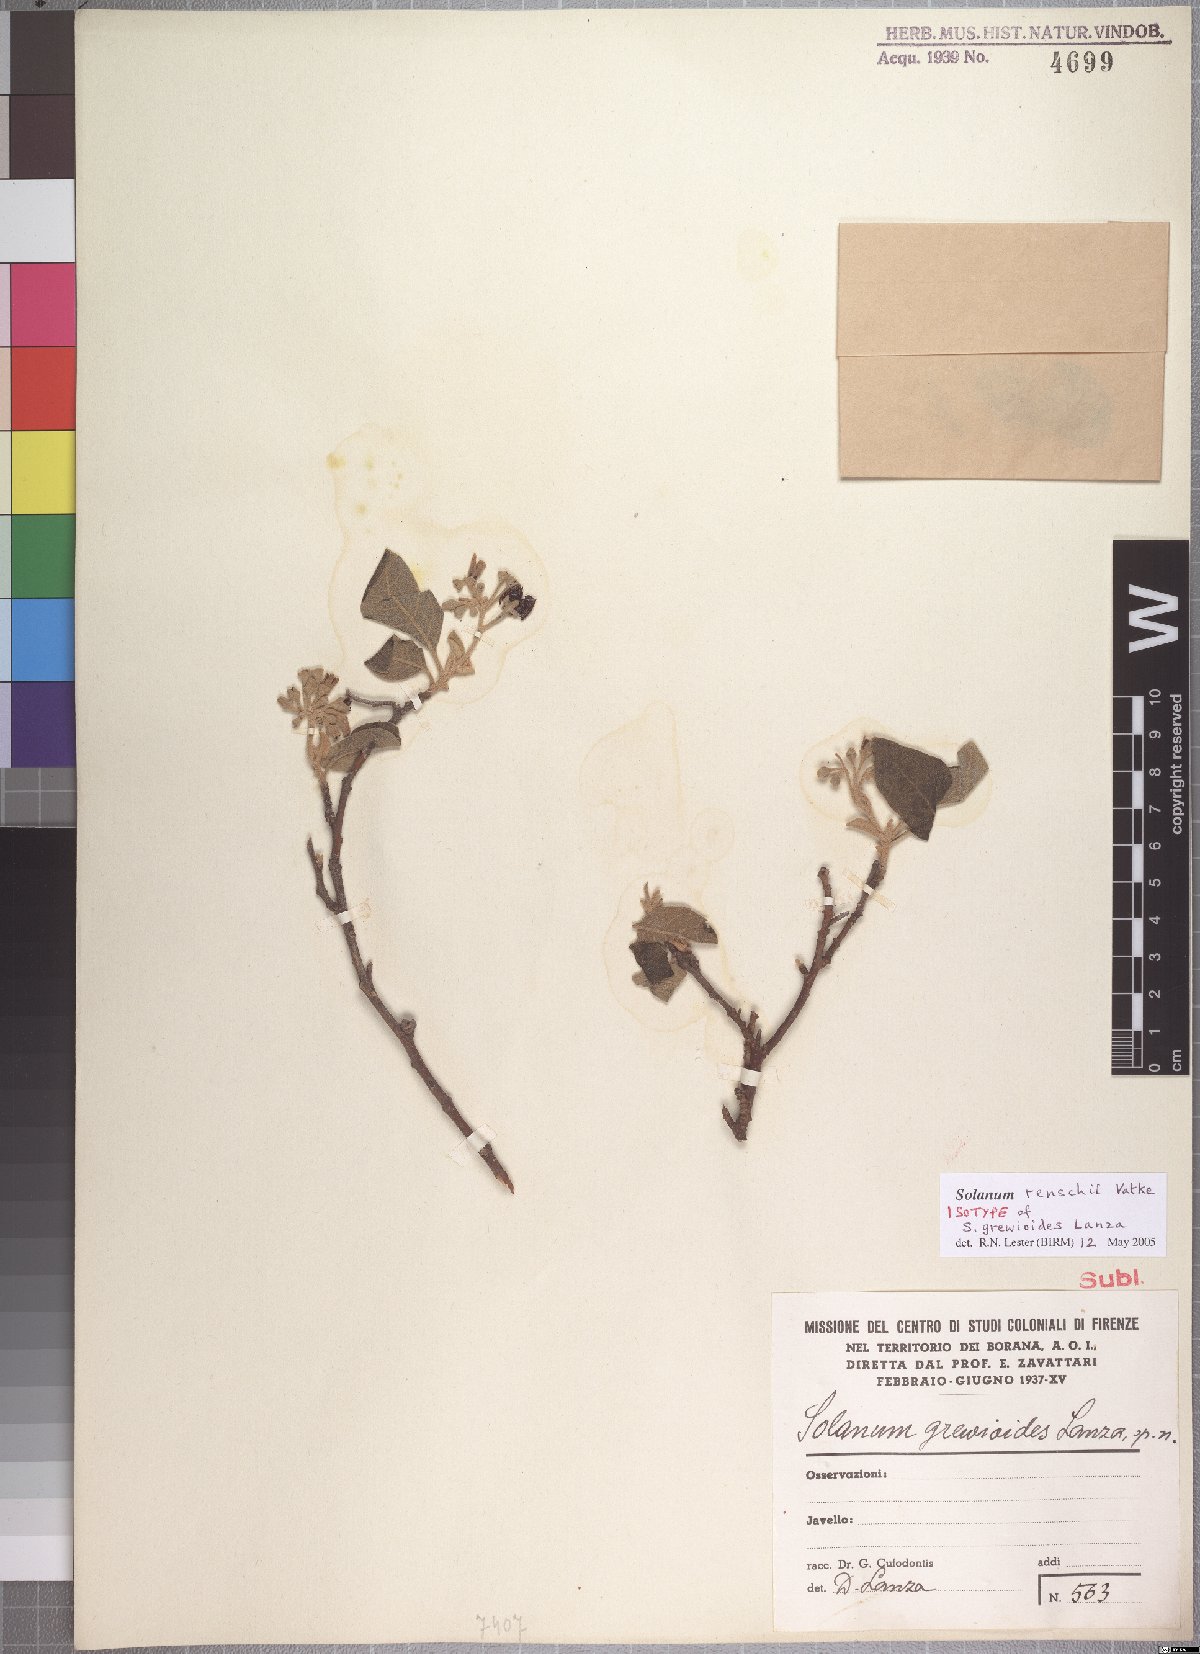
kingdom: Plantae
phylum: Tracheophyta
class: Magnoliopsida
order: Solanales
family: Solanaceae
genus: Solanum
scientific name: Solanum tettense
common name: Mozambique bitter apple
